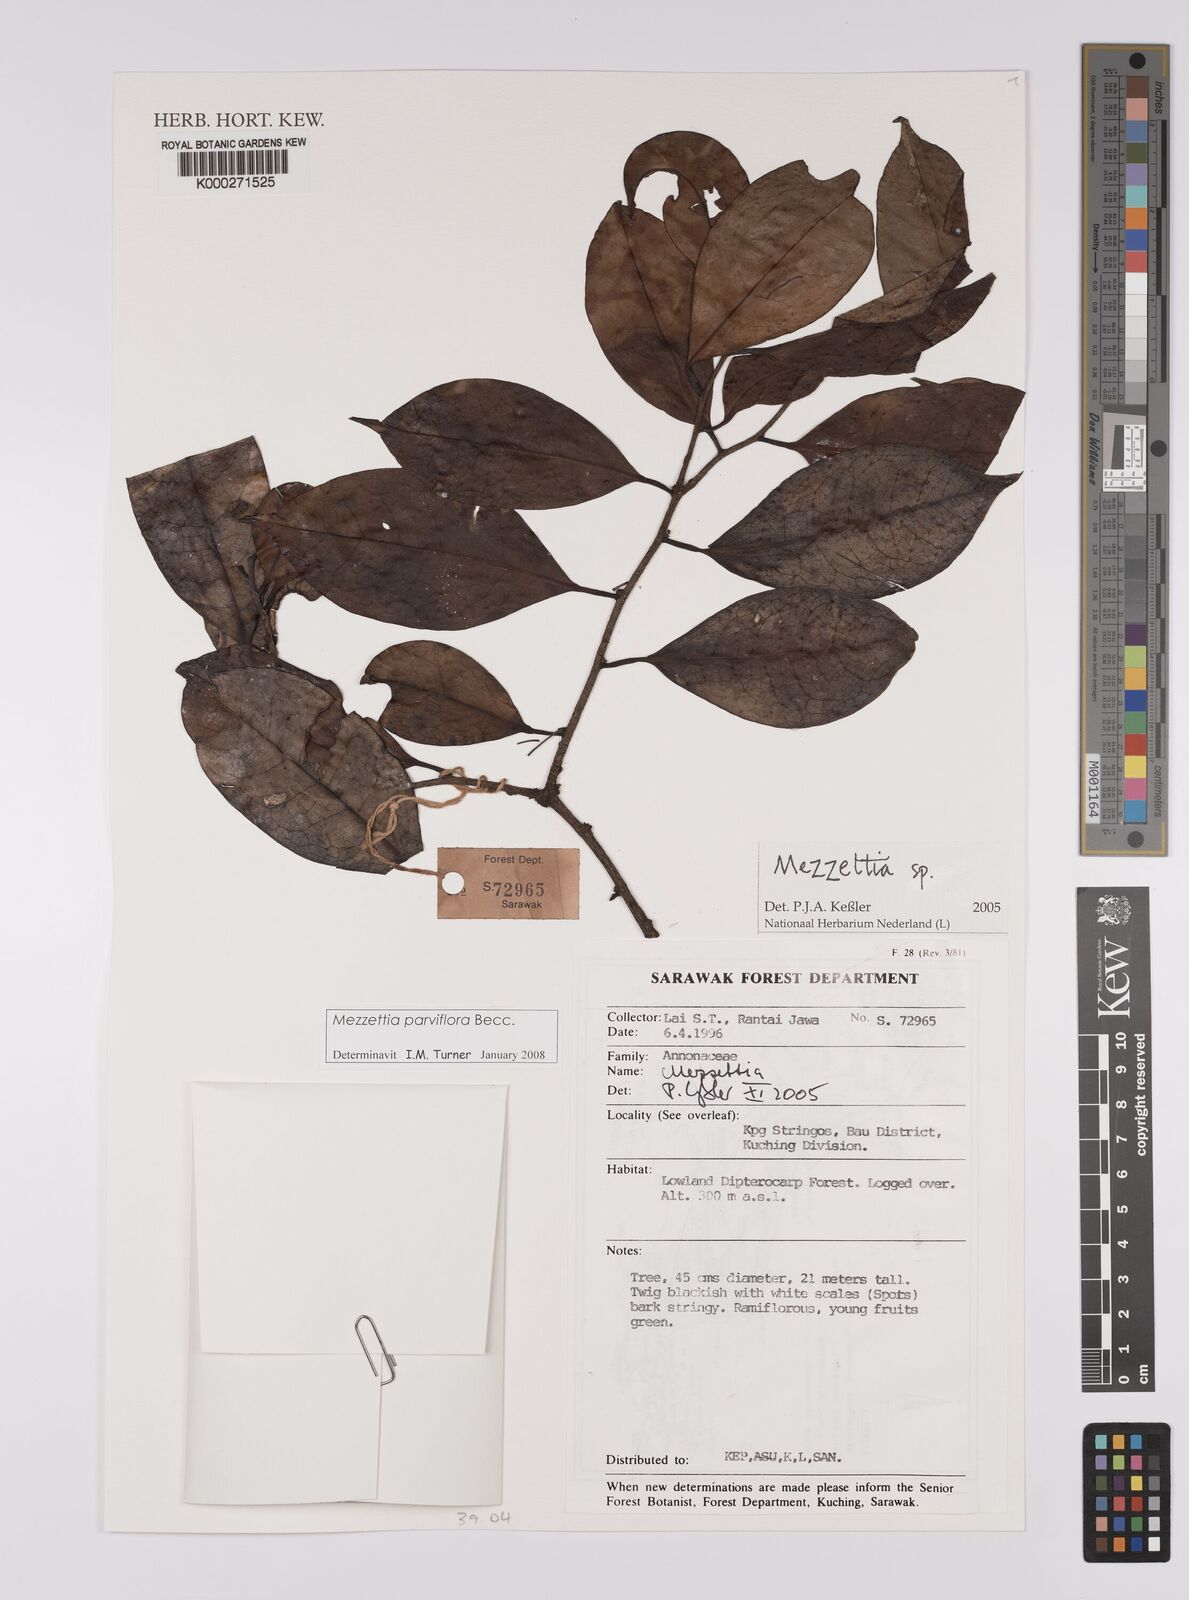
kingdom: Plantae
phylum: Tracheophyta
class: Magnoliopsida
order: Magnoliales
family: Annonaceae
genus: Mezzettia
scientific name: Mezzettia
